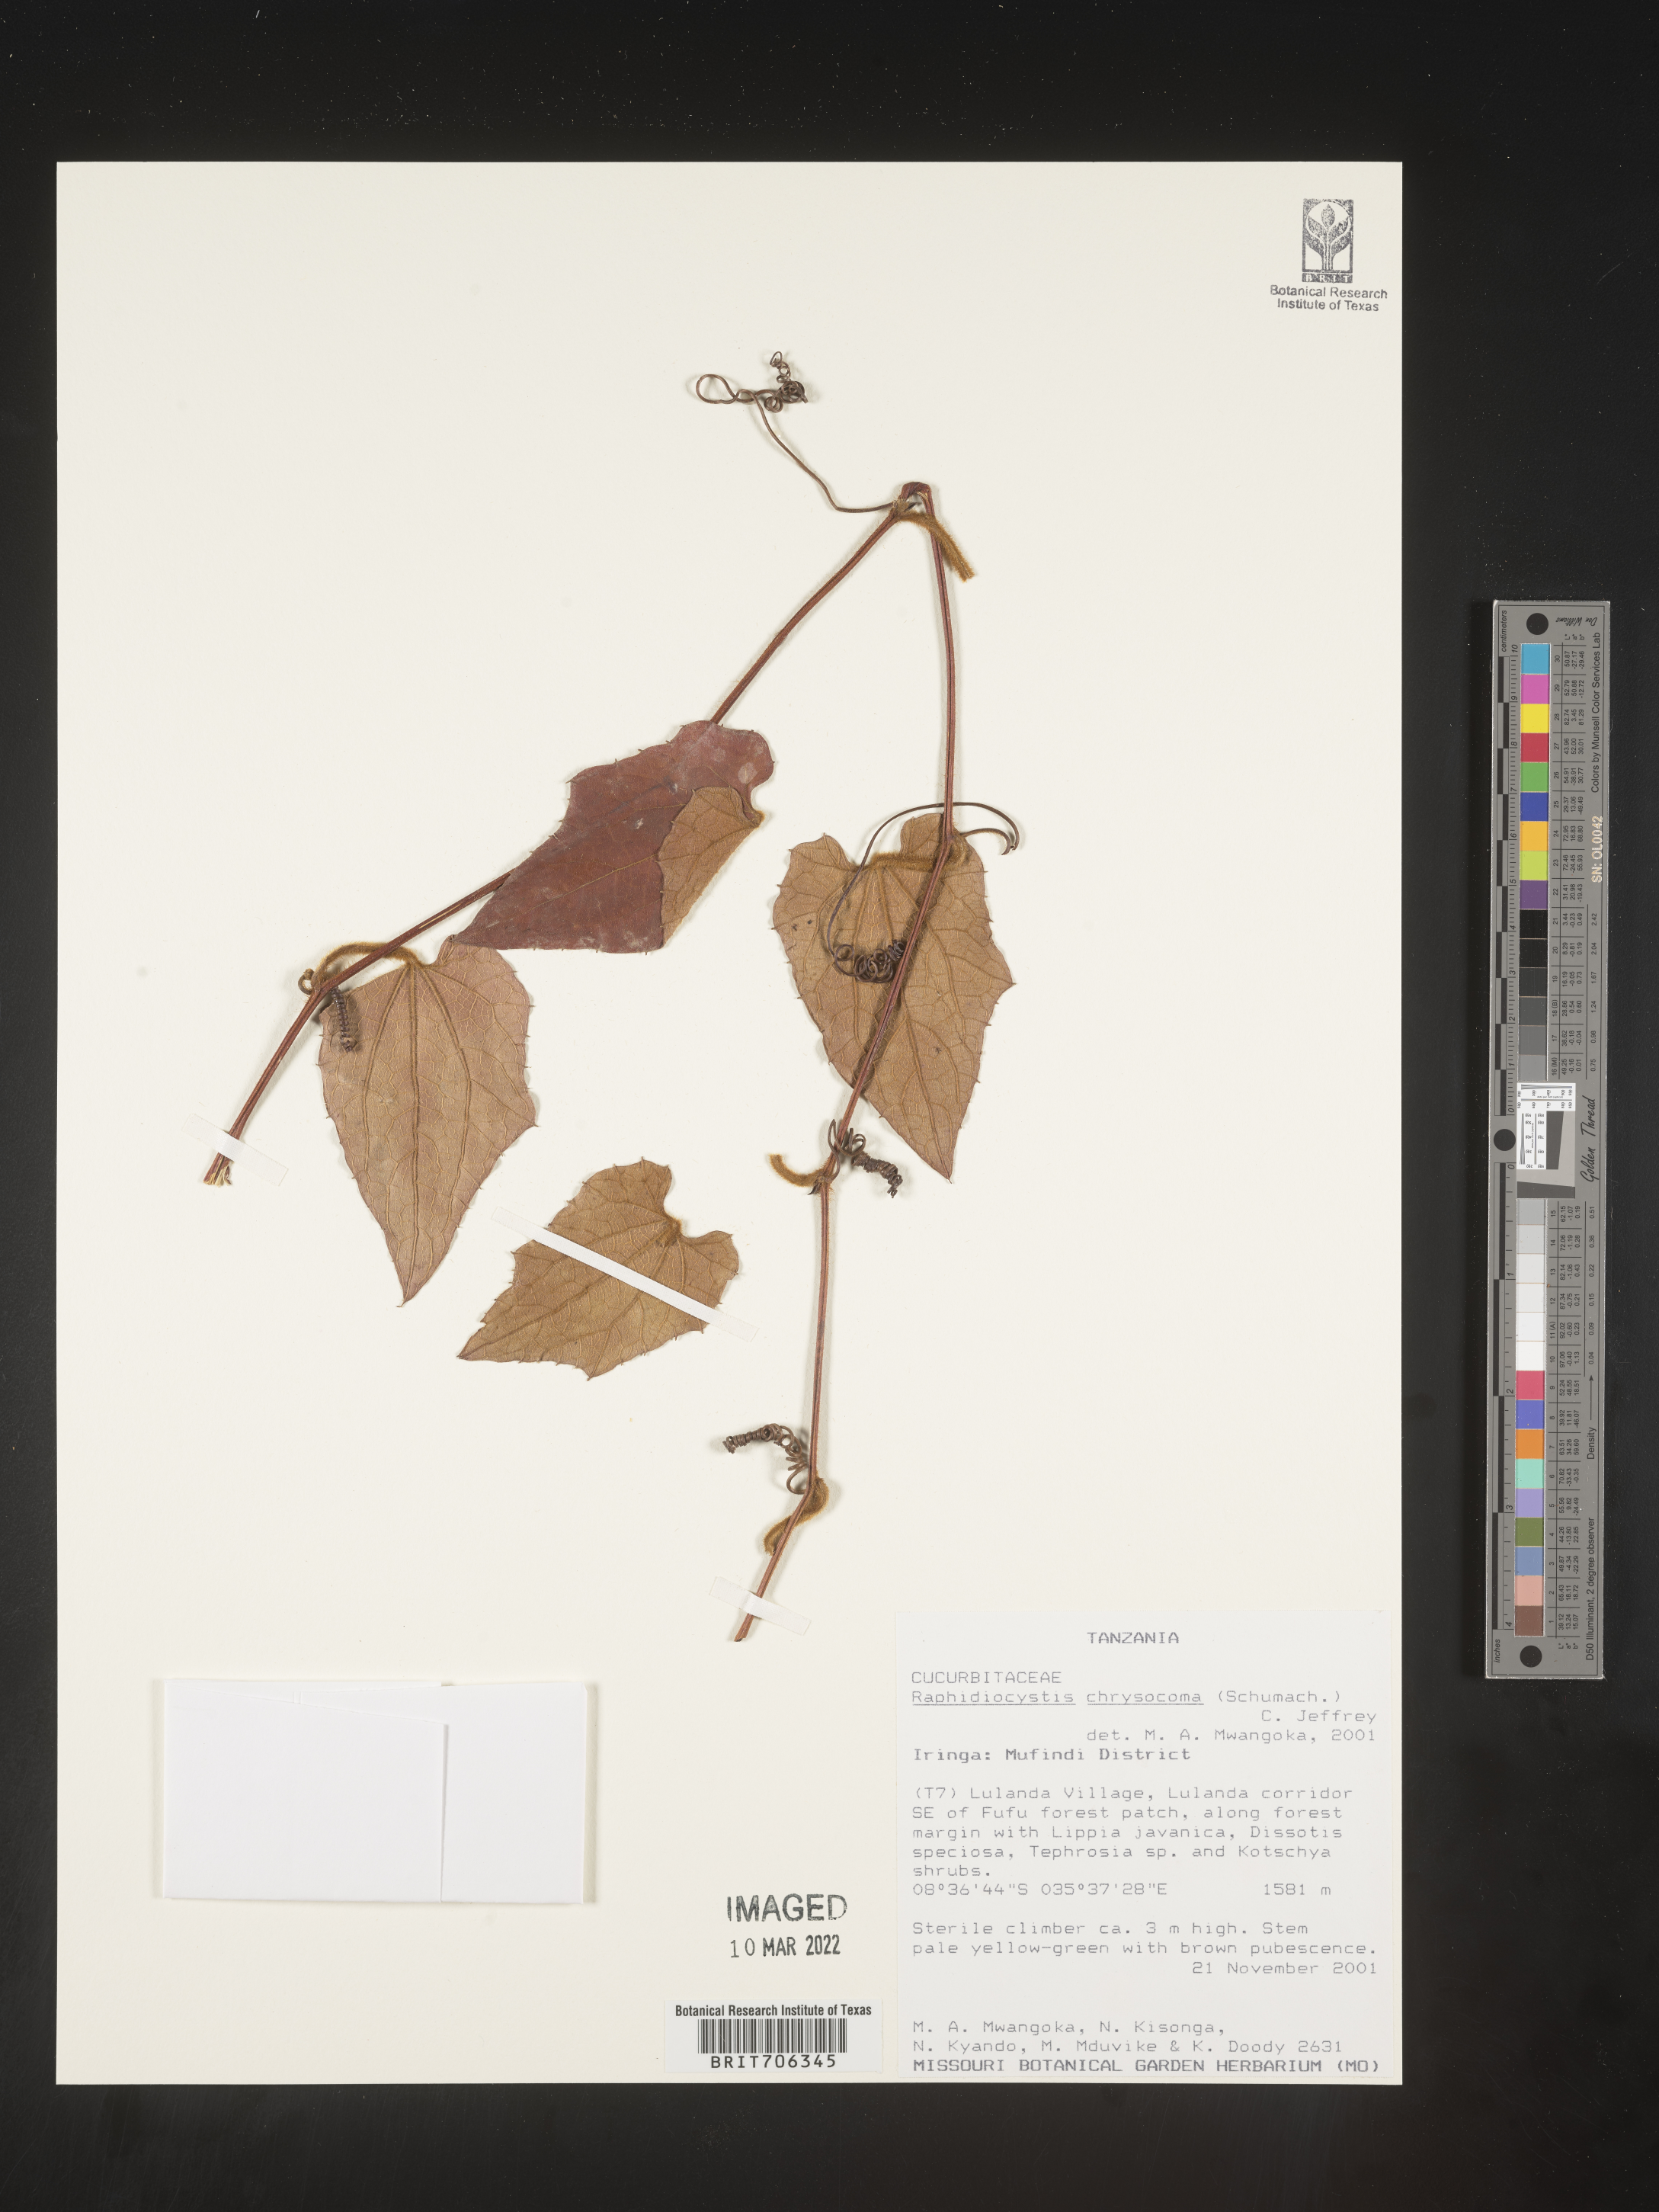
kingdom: Plantae
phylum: Tracheophyta
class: Magnoliopsida
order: Cucurbitales
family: Cucurbitaceae
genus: Raphidiocystis
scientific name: Raphidiocystis
